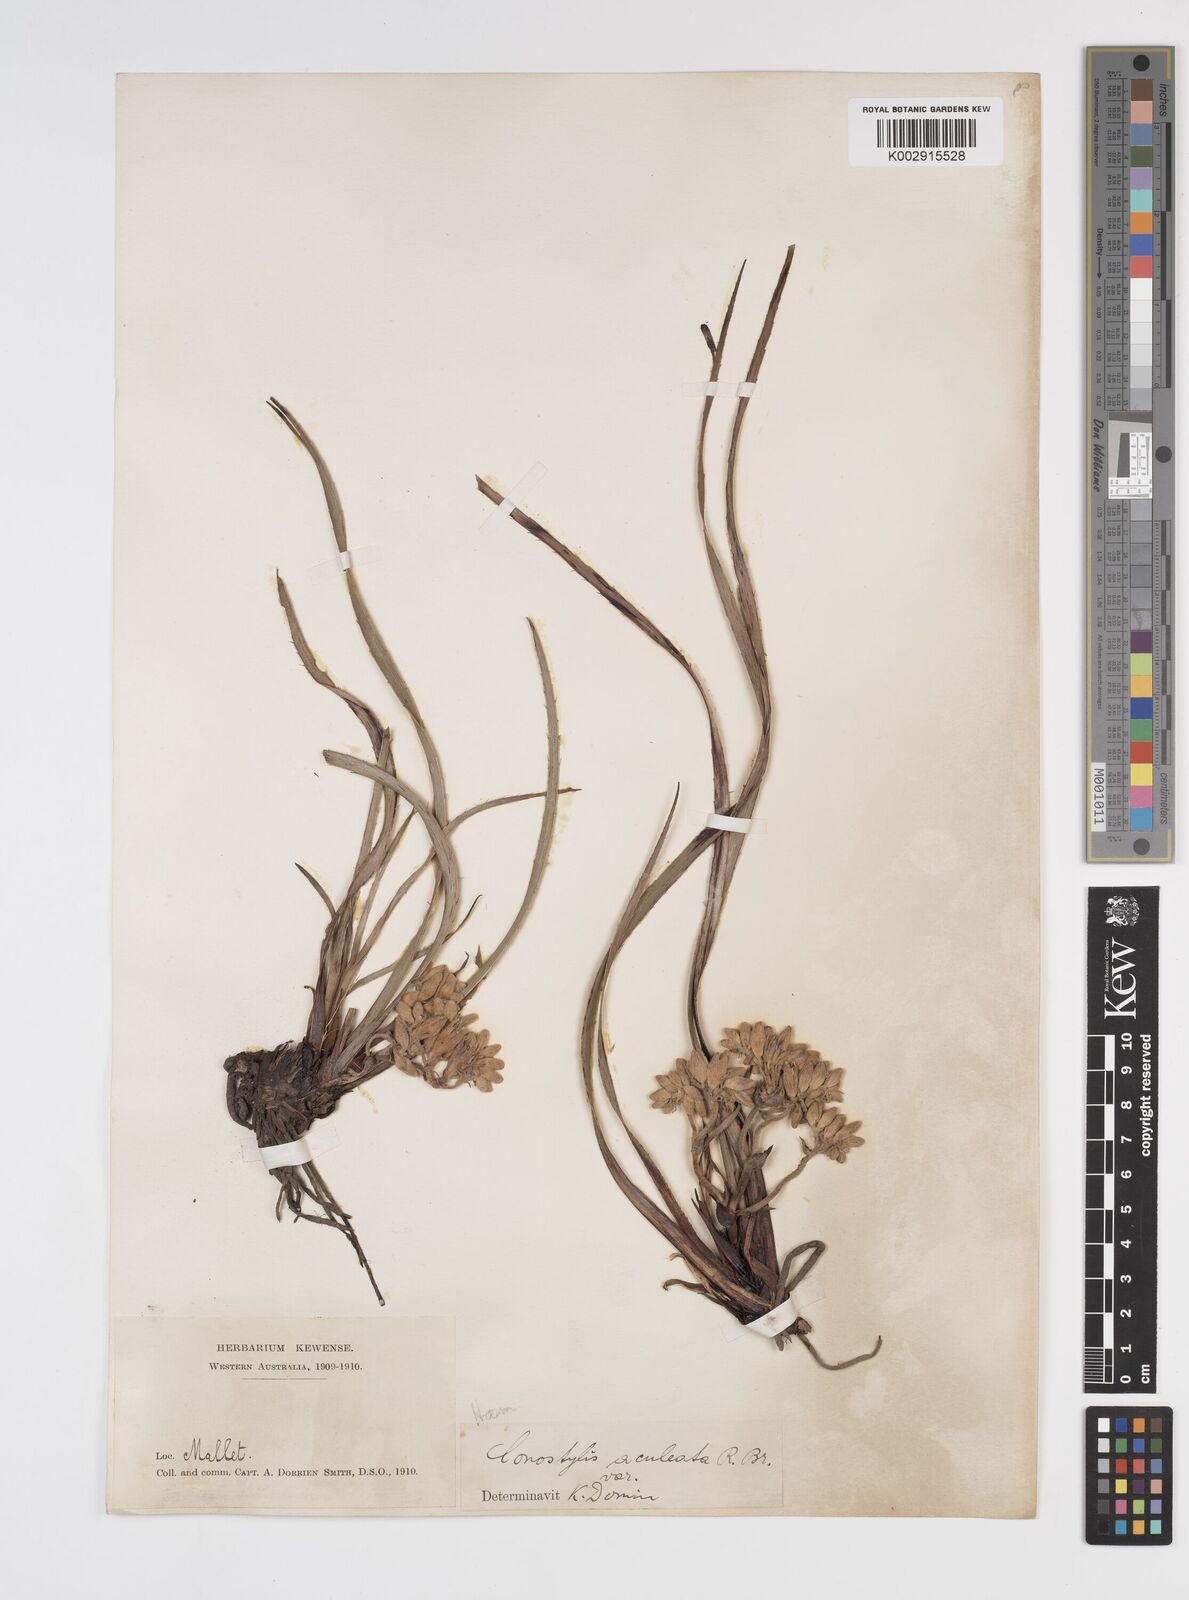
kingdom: Plantae
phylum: Tracheophyta
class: Liliopsida
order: Commelinales
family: Haemodoraceae
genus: Conostylis
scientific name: Conostylis aculeata
